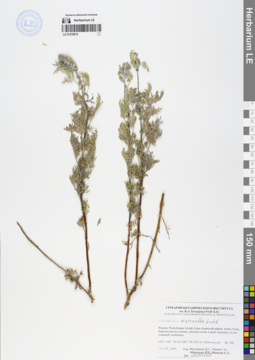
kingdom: Plantae
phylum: Tracheophyta
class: Magnoliopsida
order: Asterales
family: Asteraceae
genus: Artemisia
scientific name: Artemisia macrantha
